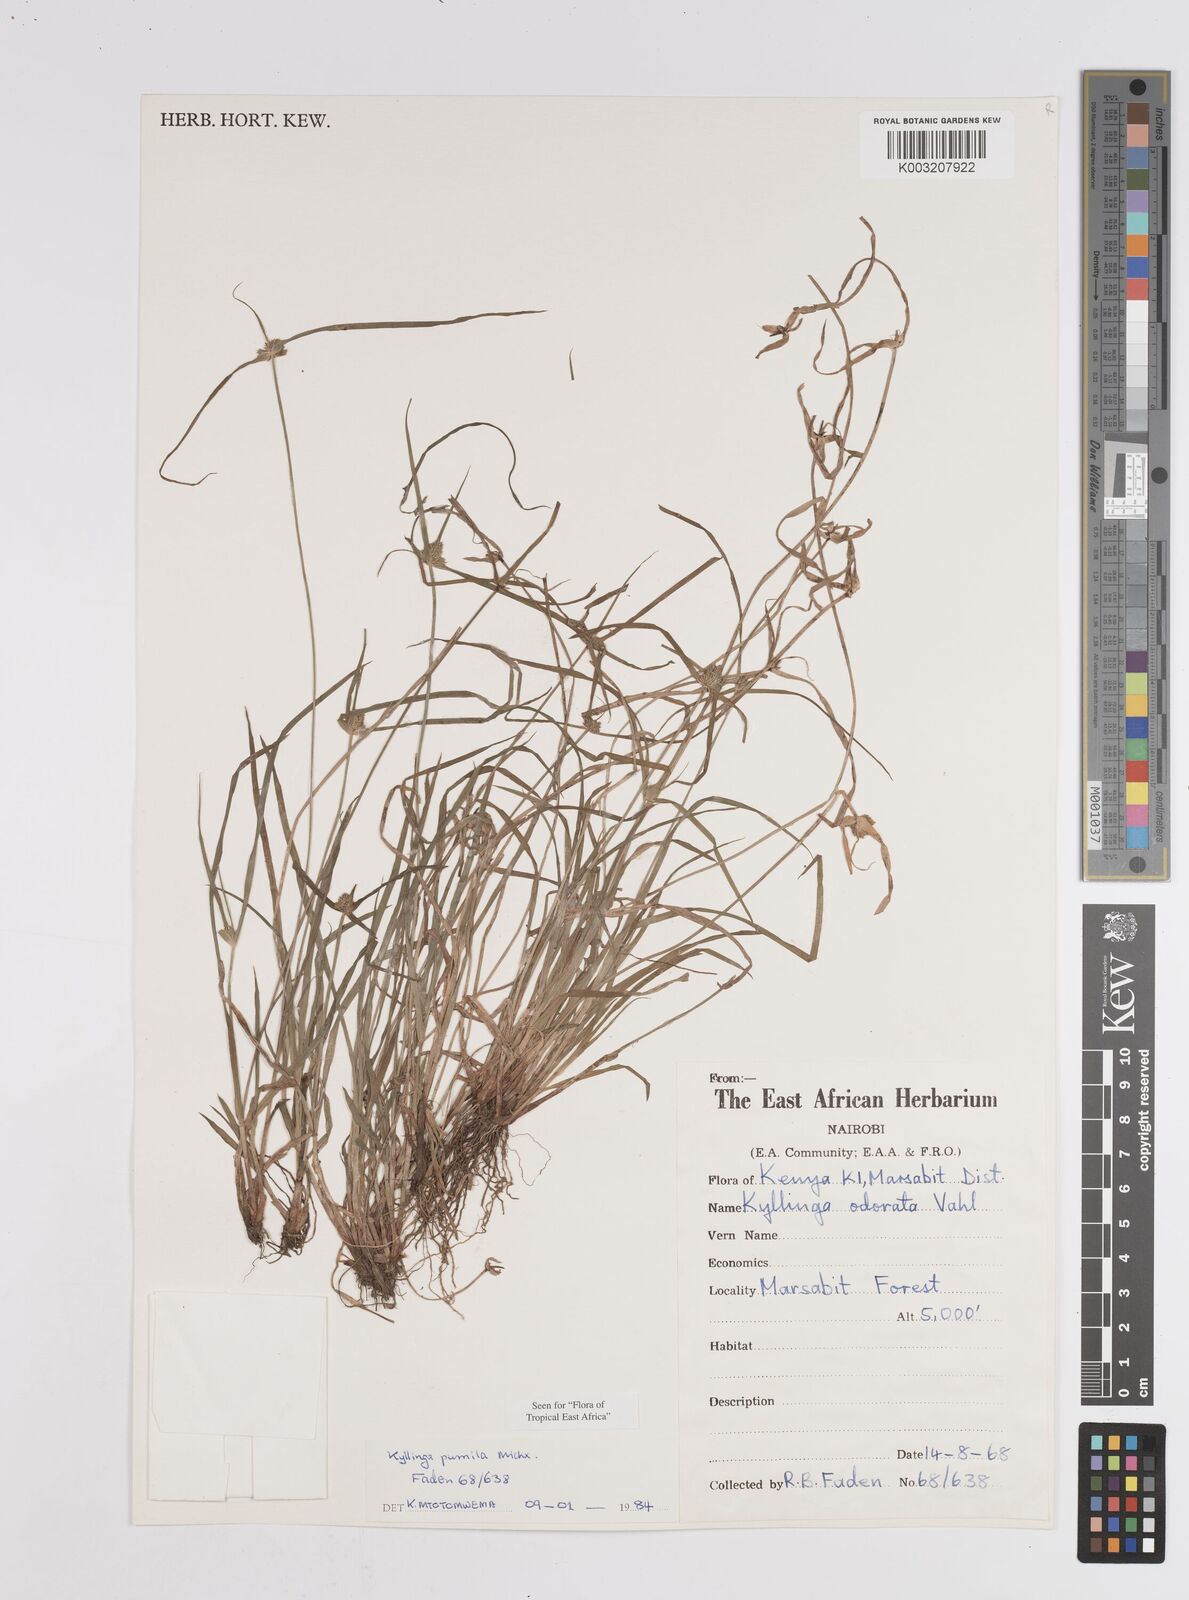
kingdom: Plantae
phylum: Tracheophyta
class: Liliopsida
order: Poales
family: Cyperaceae
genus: Cyperus
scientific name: Cyperus
